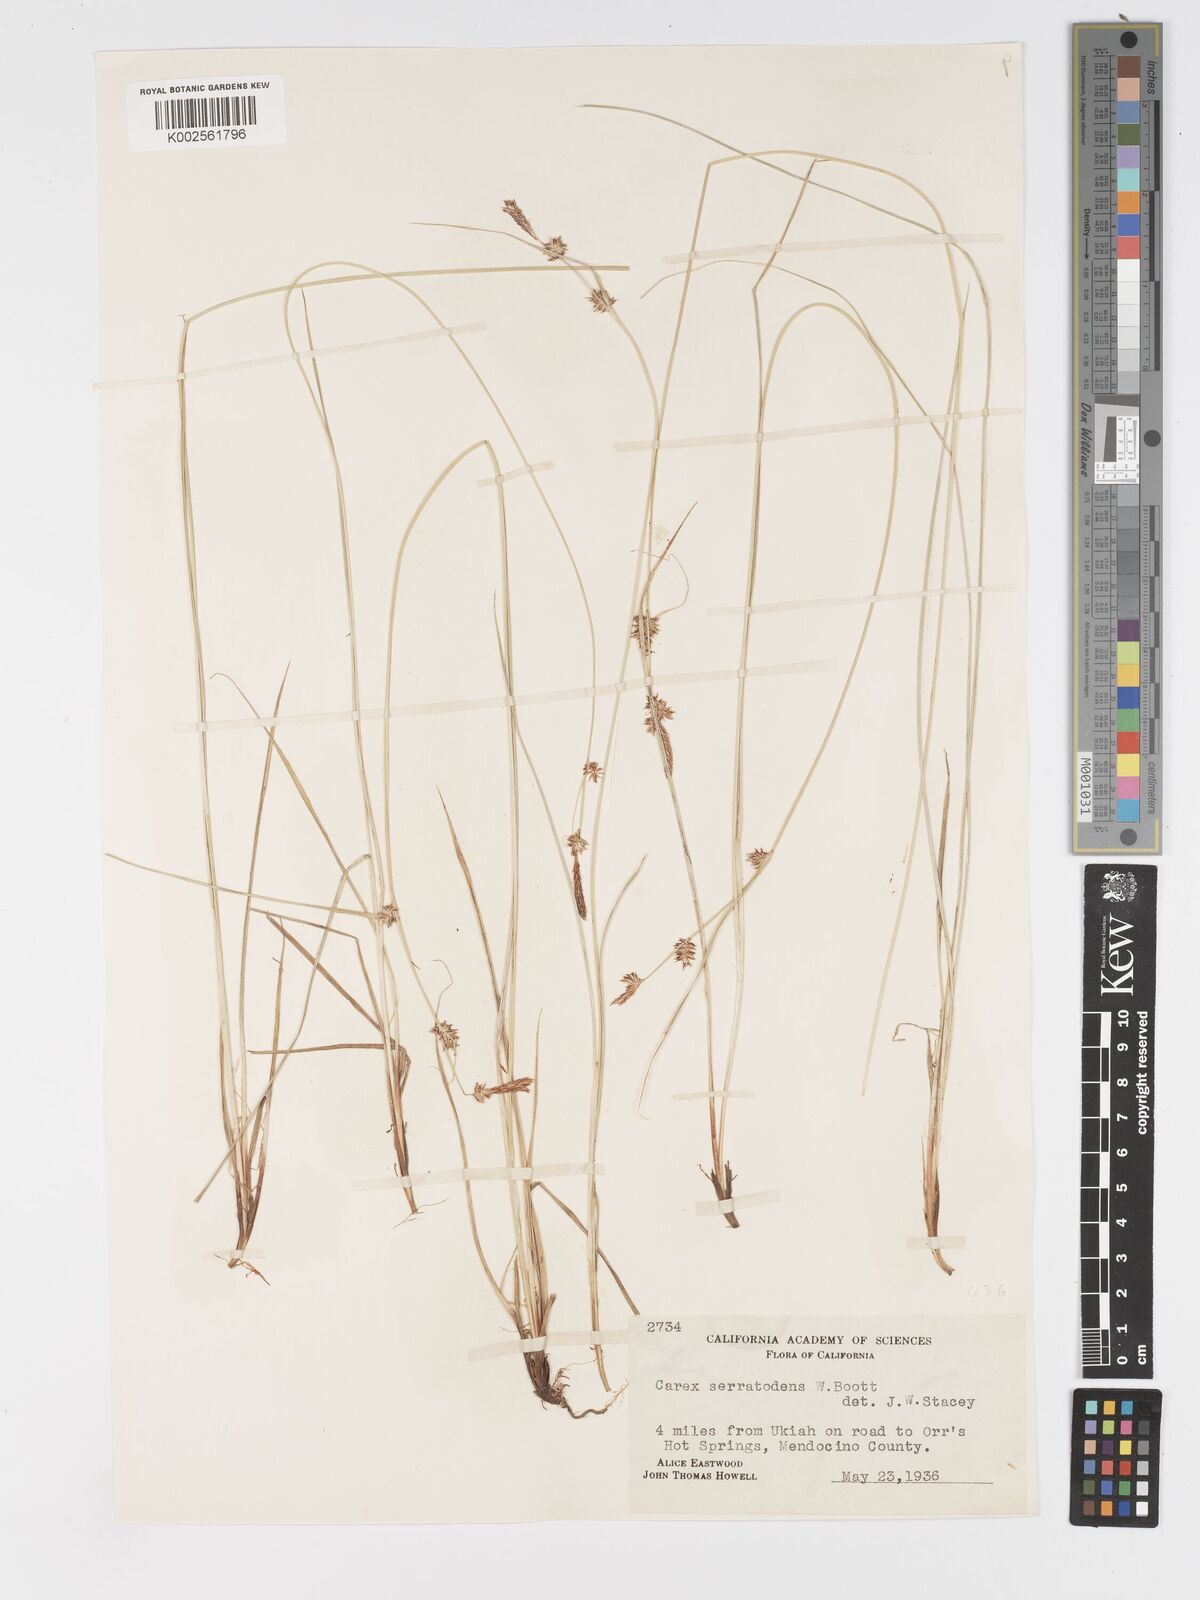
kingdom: Plantae
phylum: Tracheophyta
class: Liliopsida
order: Poales
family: Cyperaceae
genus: Carex
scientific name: Carex serratodens
